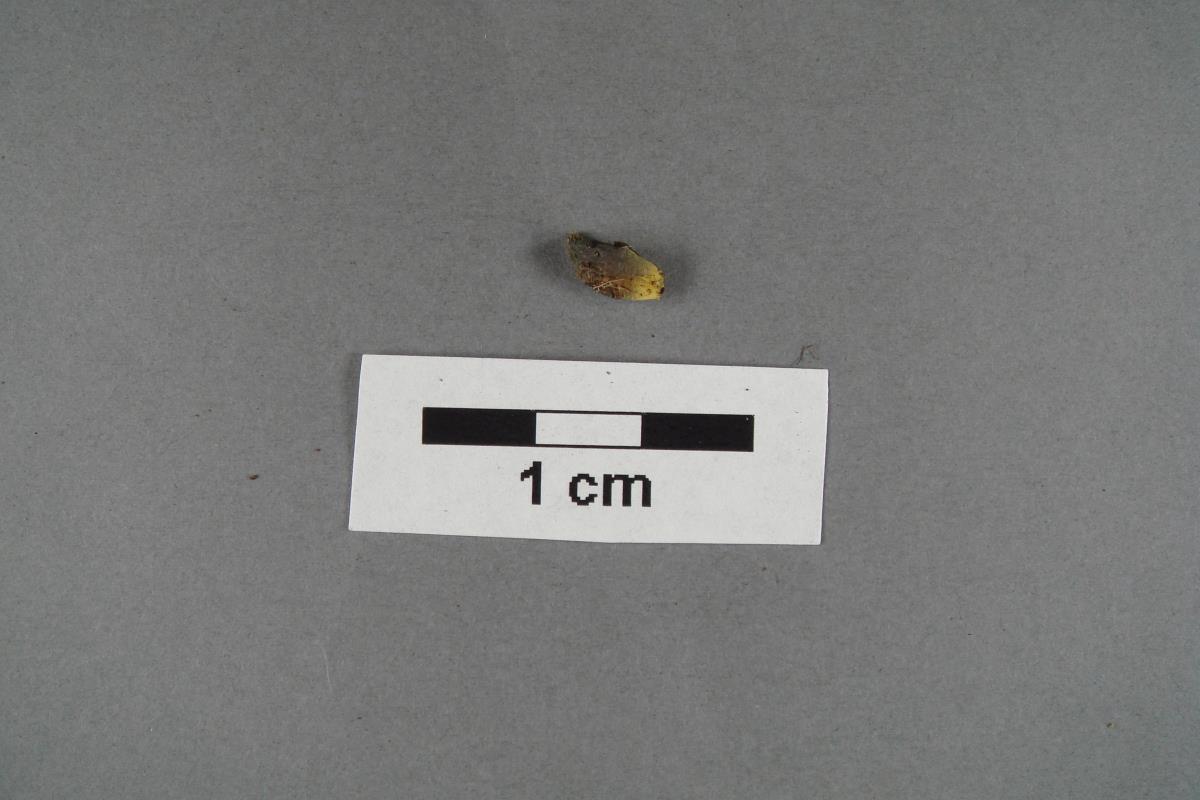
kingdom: Fungi
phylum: Basidiomycota
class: Agaricomycetes
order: Agaricales
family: Agaricaceae
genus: Clavogaster
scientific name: Clavogaster virescens
